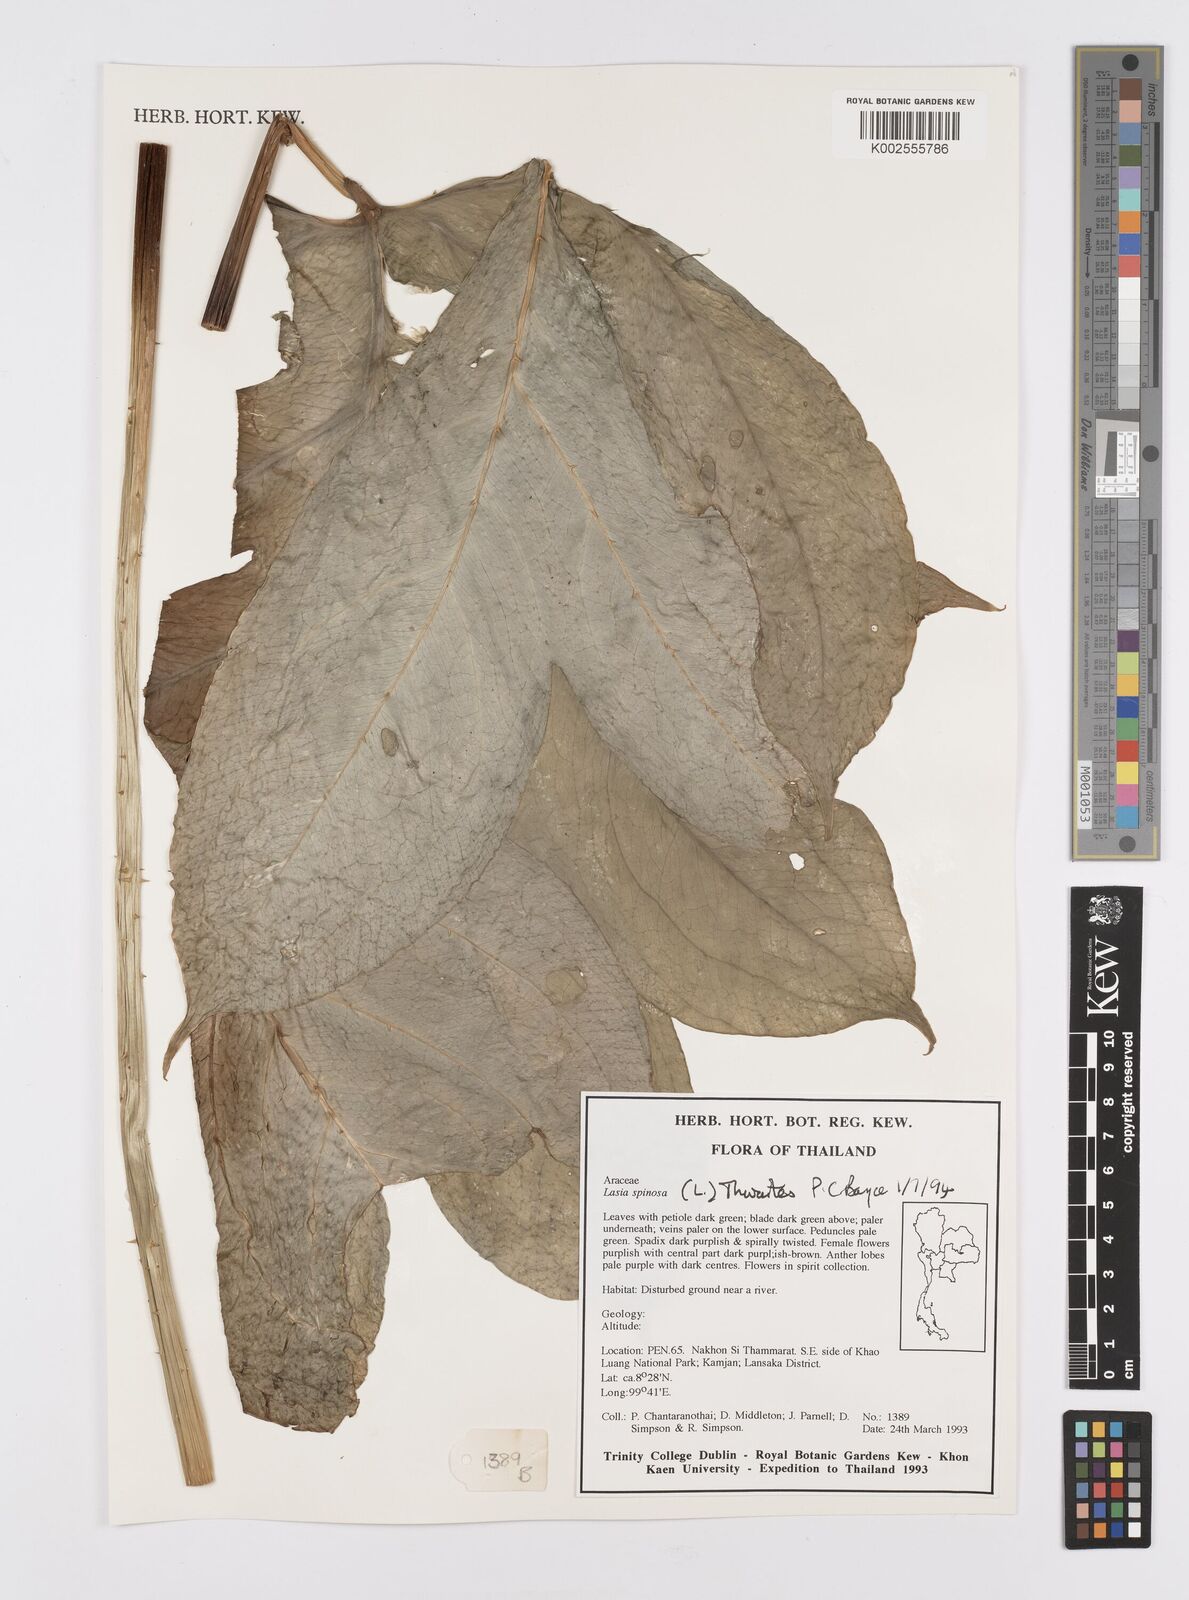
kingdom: Plantae
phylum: Tracheophyta
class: Liliopsida
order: Alismatales
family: Araceae
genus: Lasia
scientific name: Lasia spinosa
